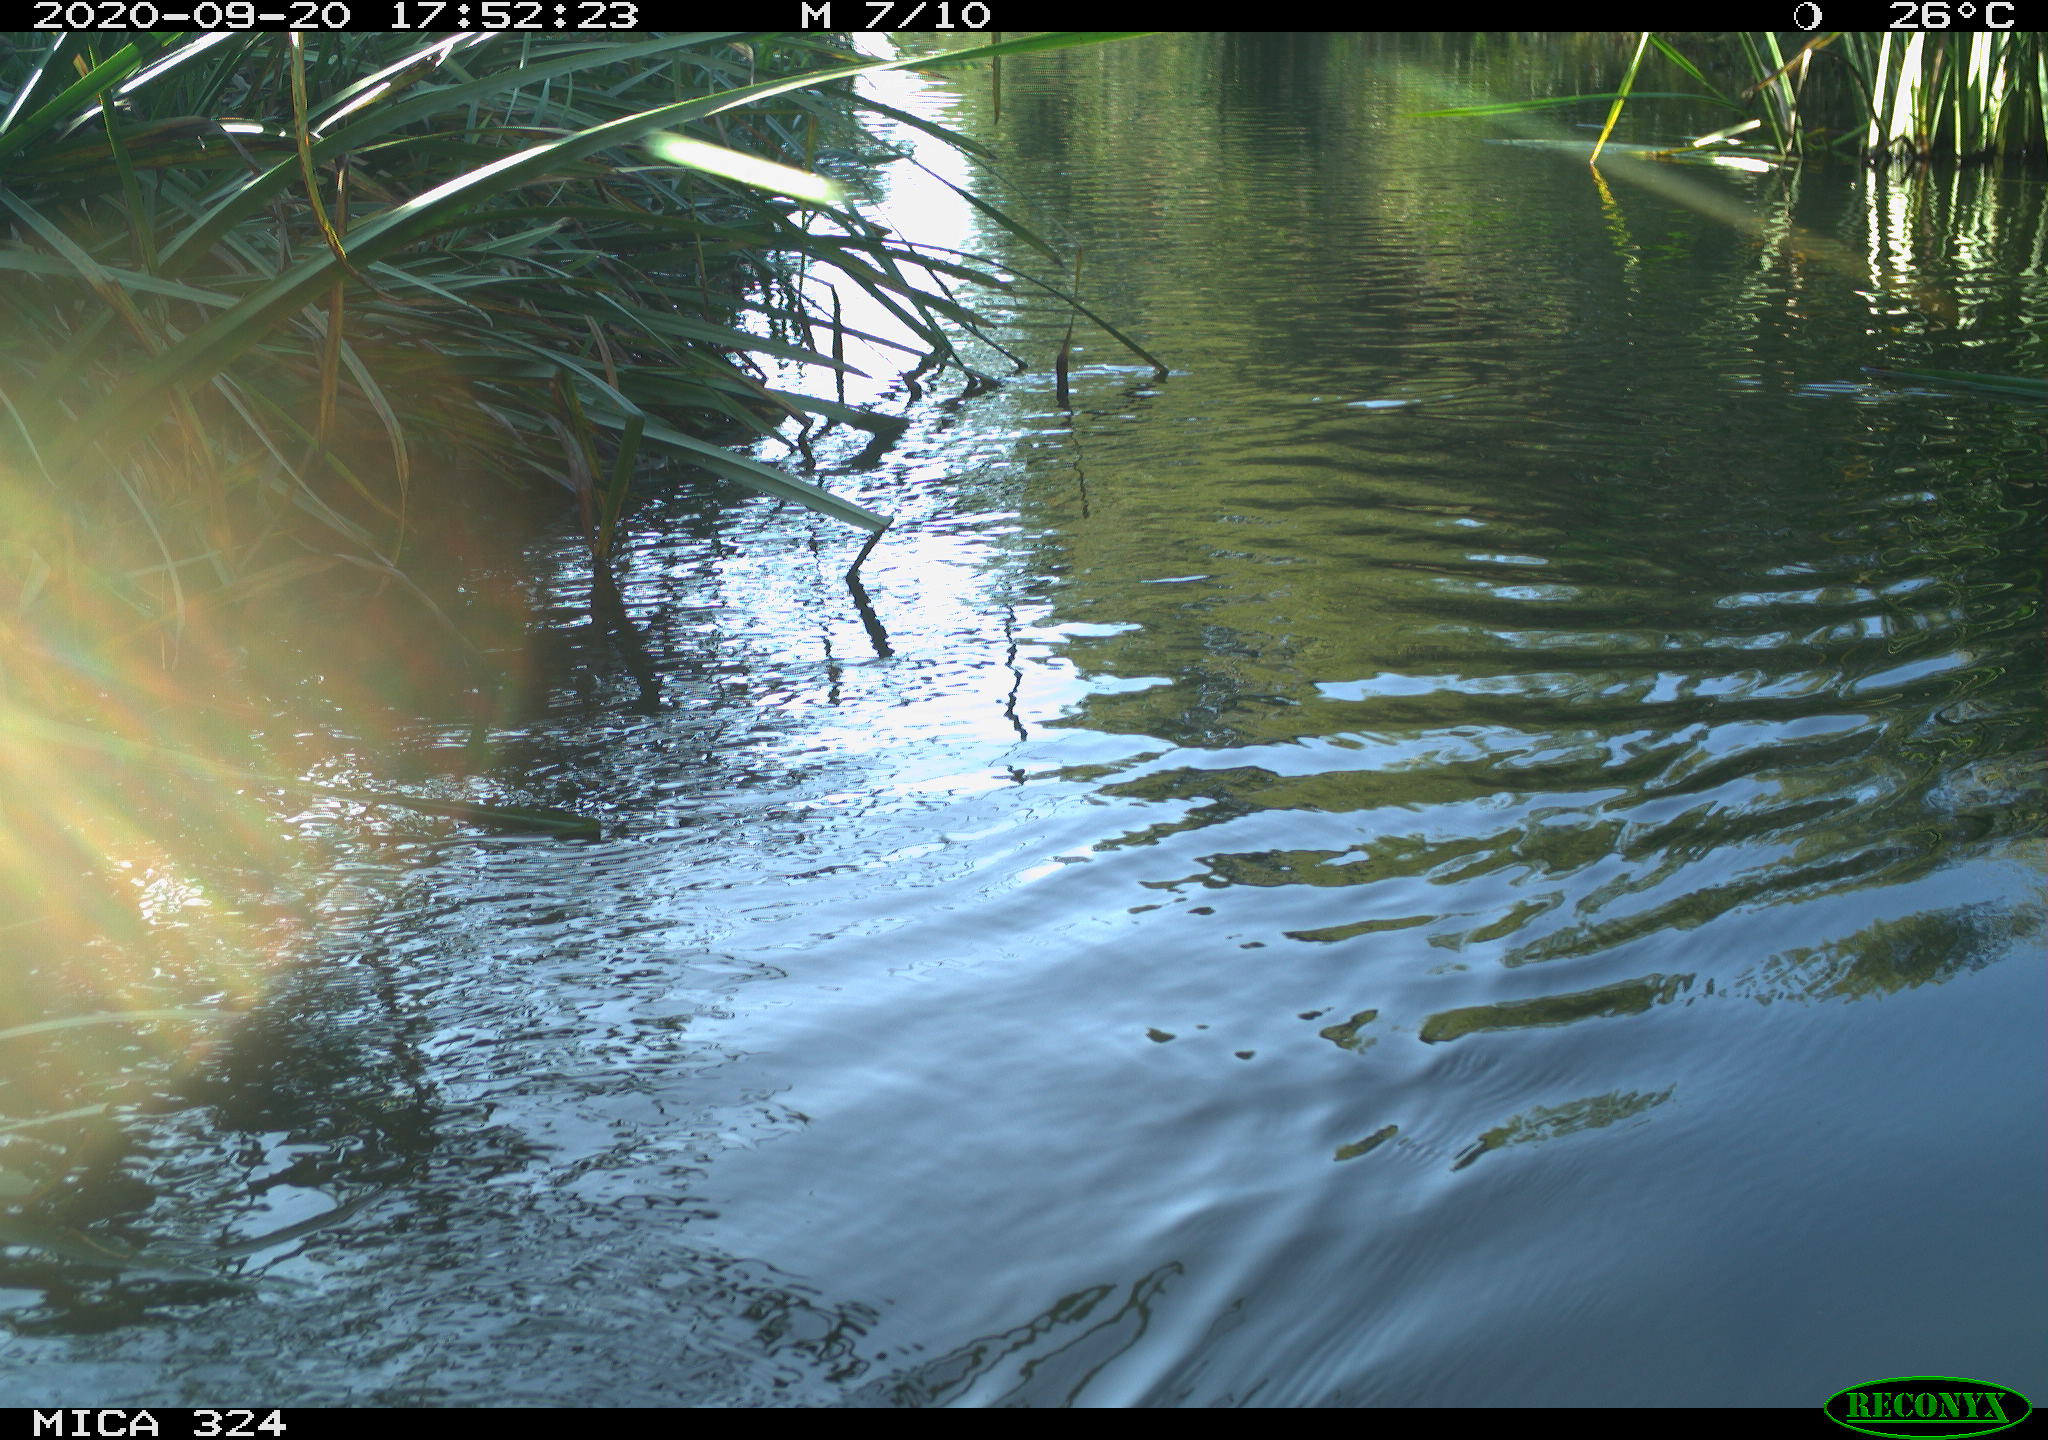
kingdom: Animalia
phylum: Chordata
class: Mammalia
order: Rodentia
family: Cricetidae
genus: Ondatra
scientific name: Ondatra zibethicus
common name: Muskrat
